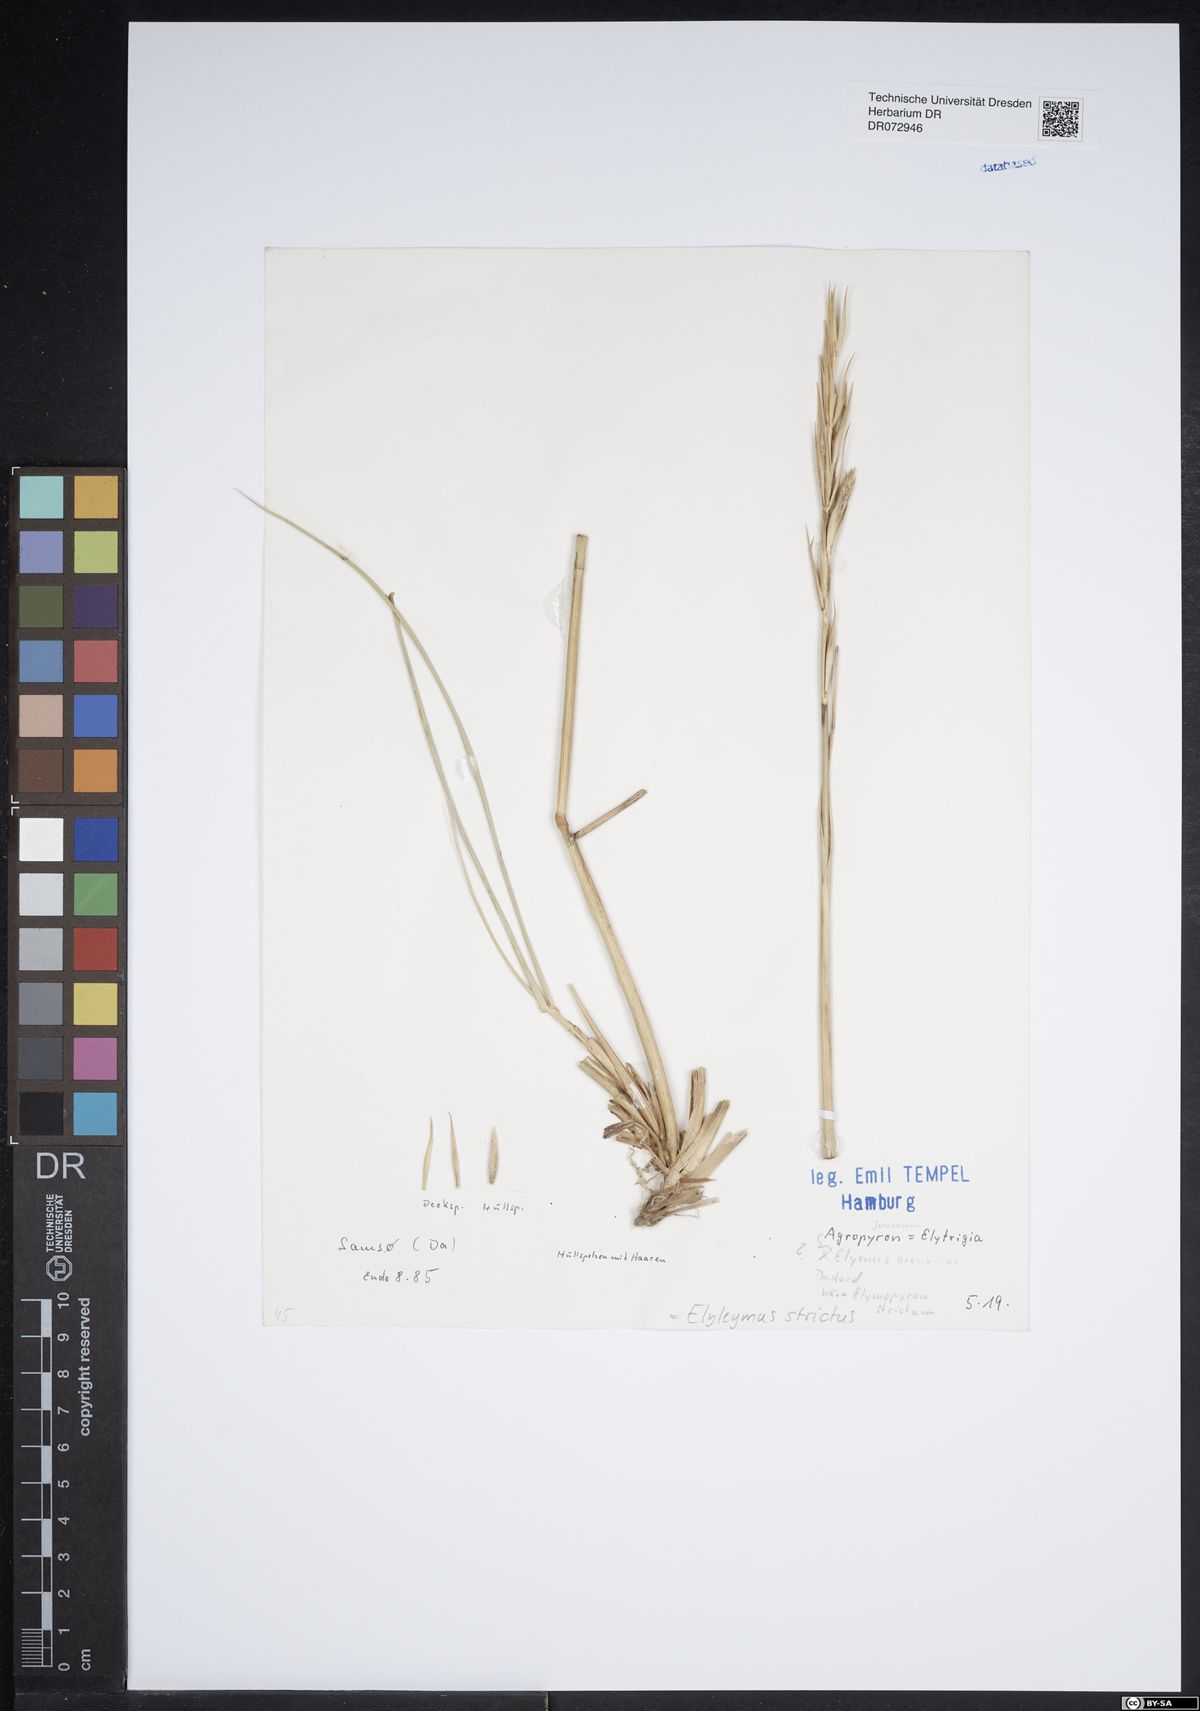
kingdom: Plantae
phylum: Tracheophyta
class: Liliopsida
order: Poales
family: Poaceae
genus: Elyleymus
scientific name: Elyleymus strictus
